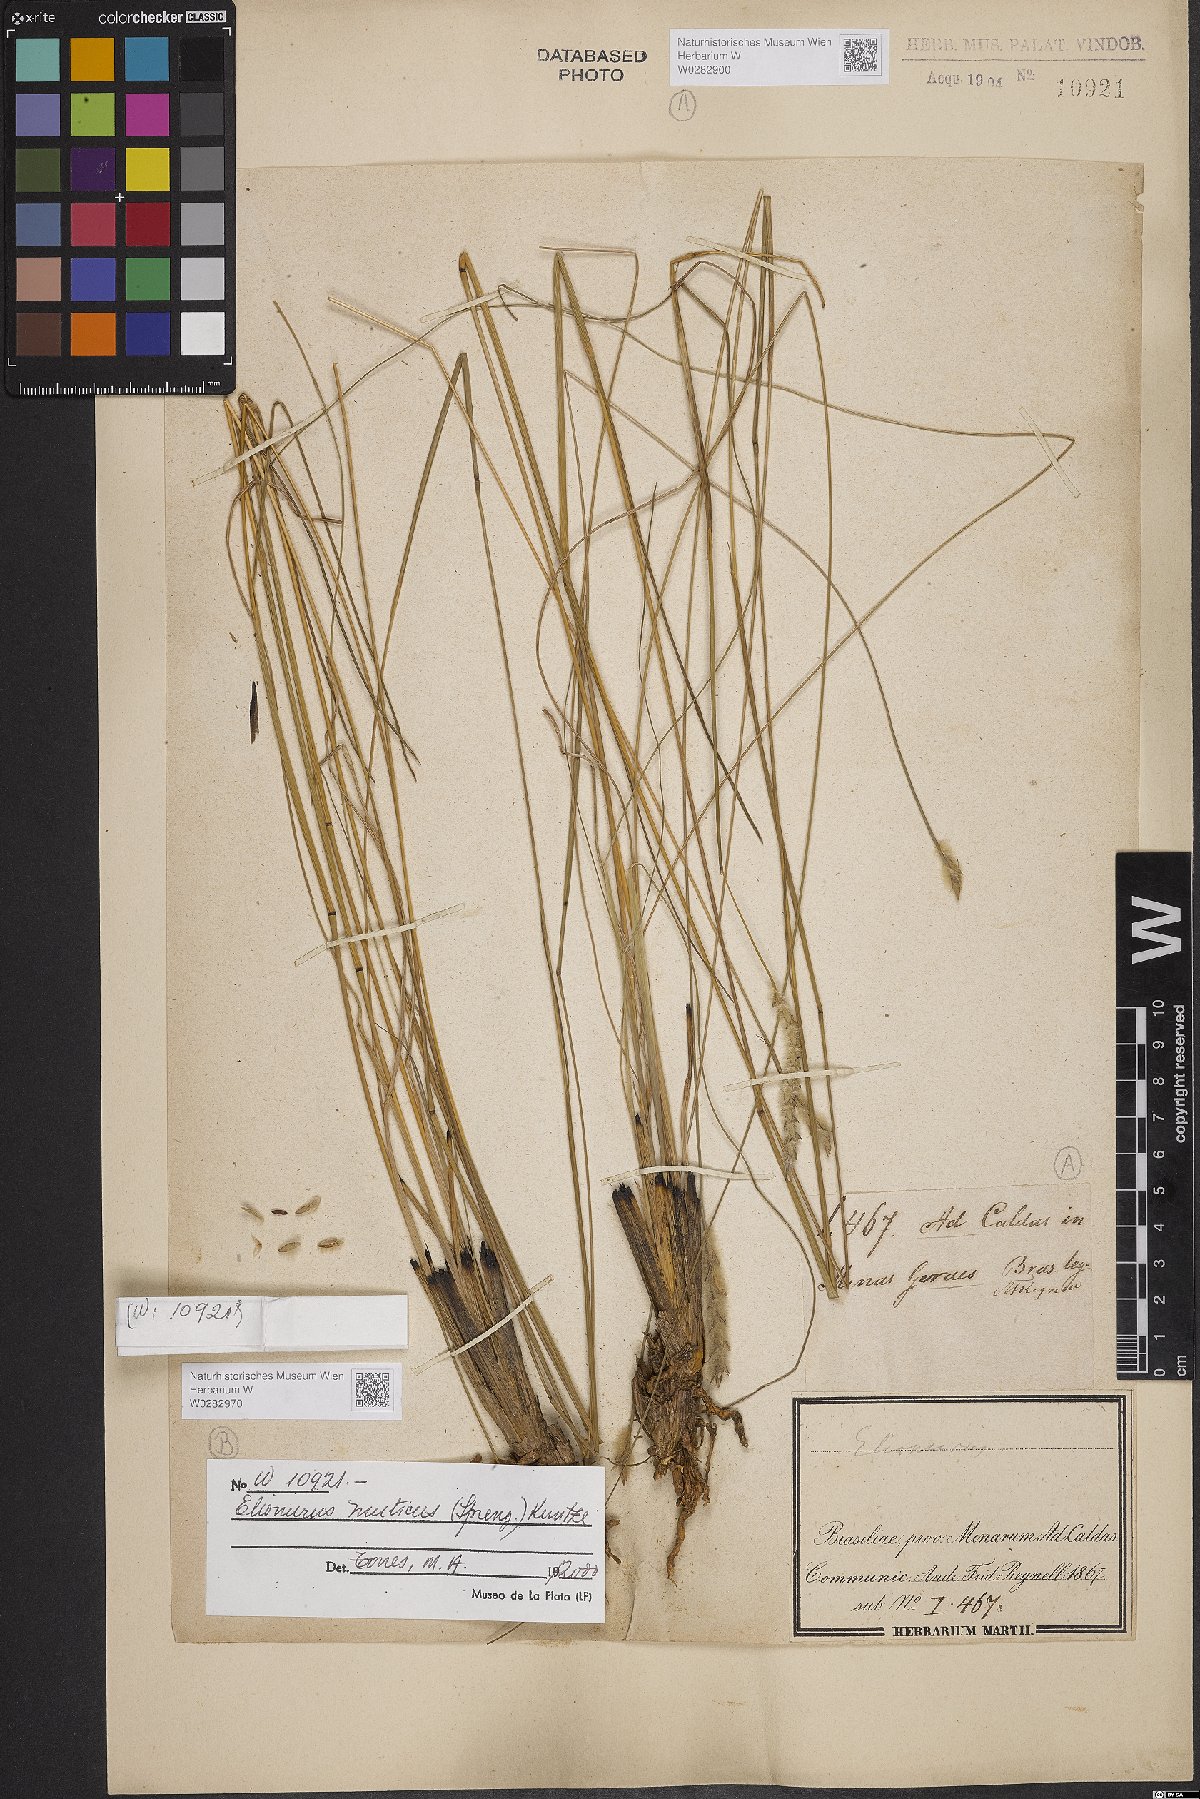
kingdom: Plantae
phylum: Tracheophyta
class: Liliopsida
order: Poales
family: Poaceae
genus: Elionurus
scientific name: Elionurus muticus
